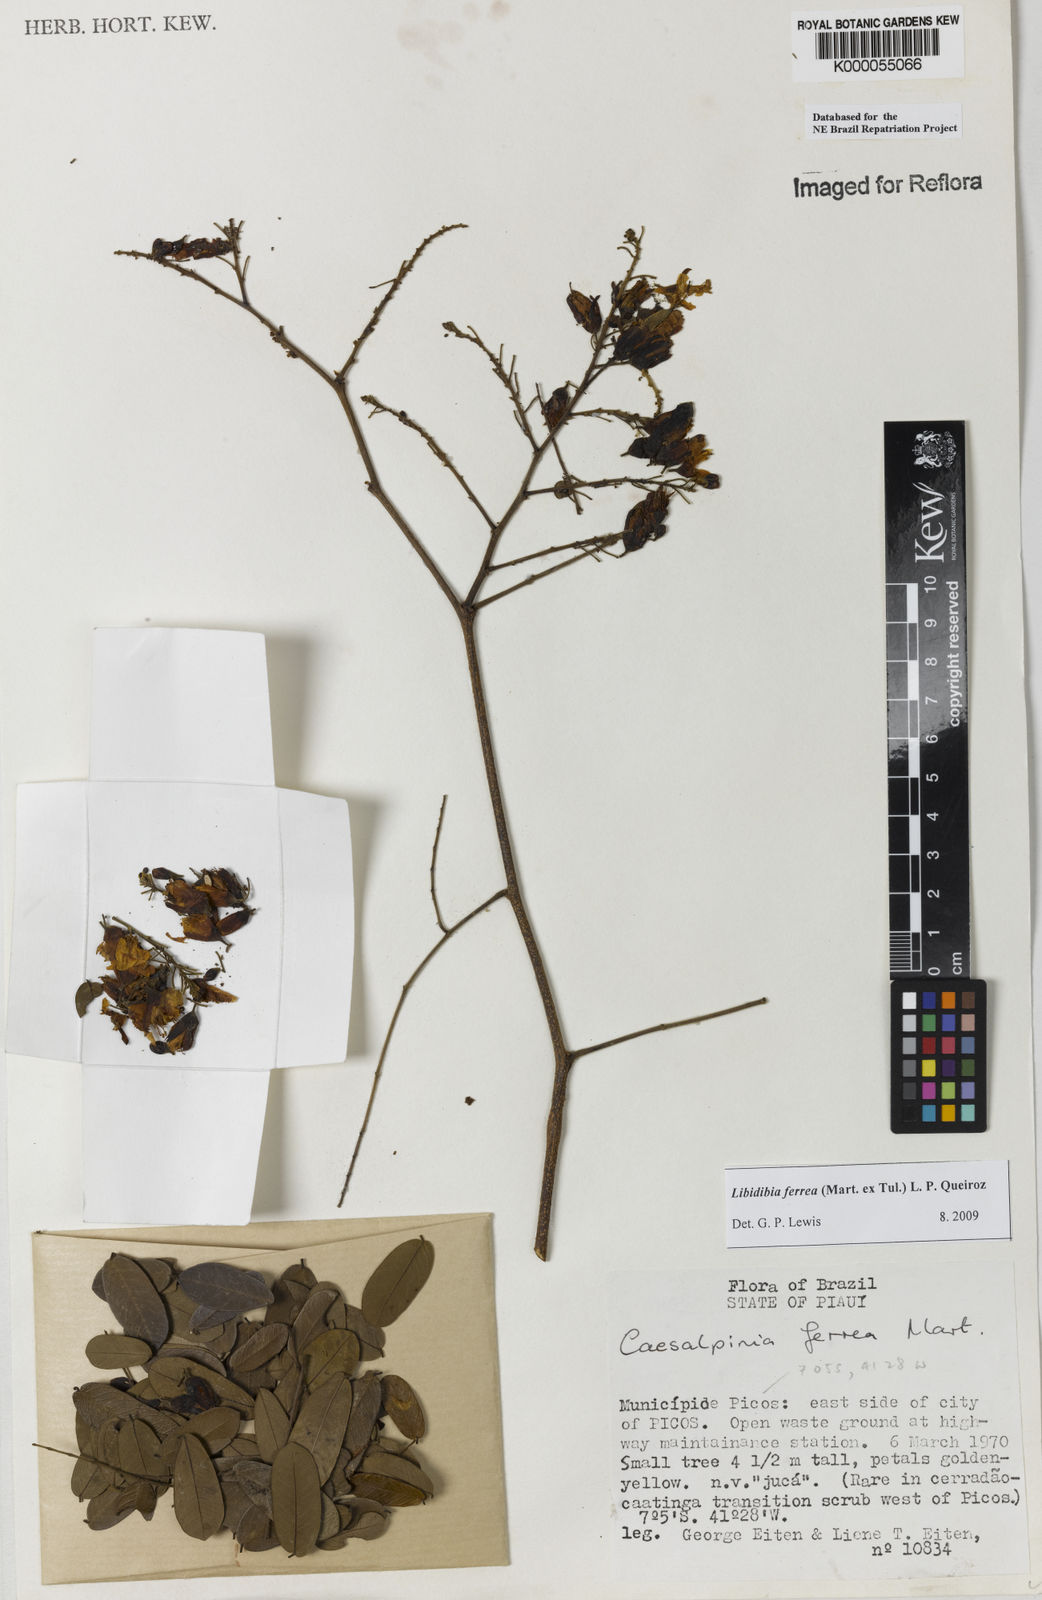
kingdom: Plantae
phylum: Tracheophyta
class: Magnoliopsida
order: Fabales
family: Fabaceae
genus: Libidibia
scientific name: Libidibia ferrea
